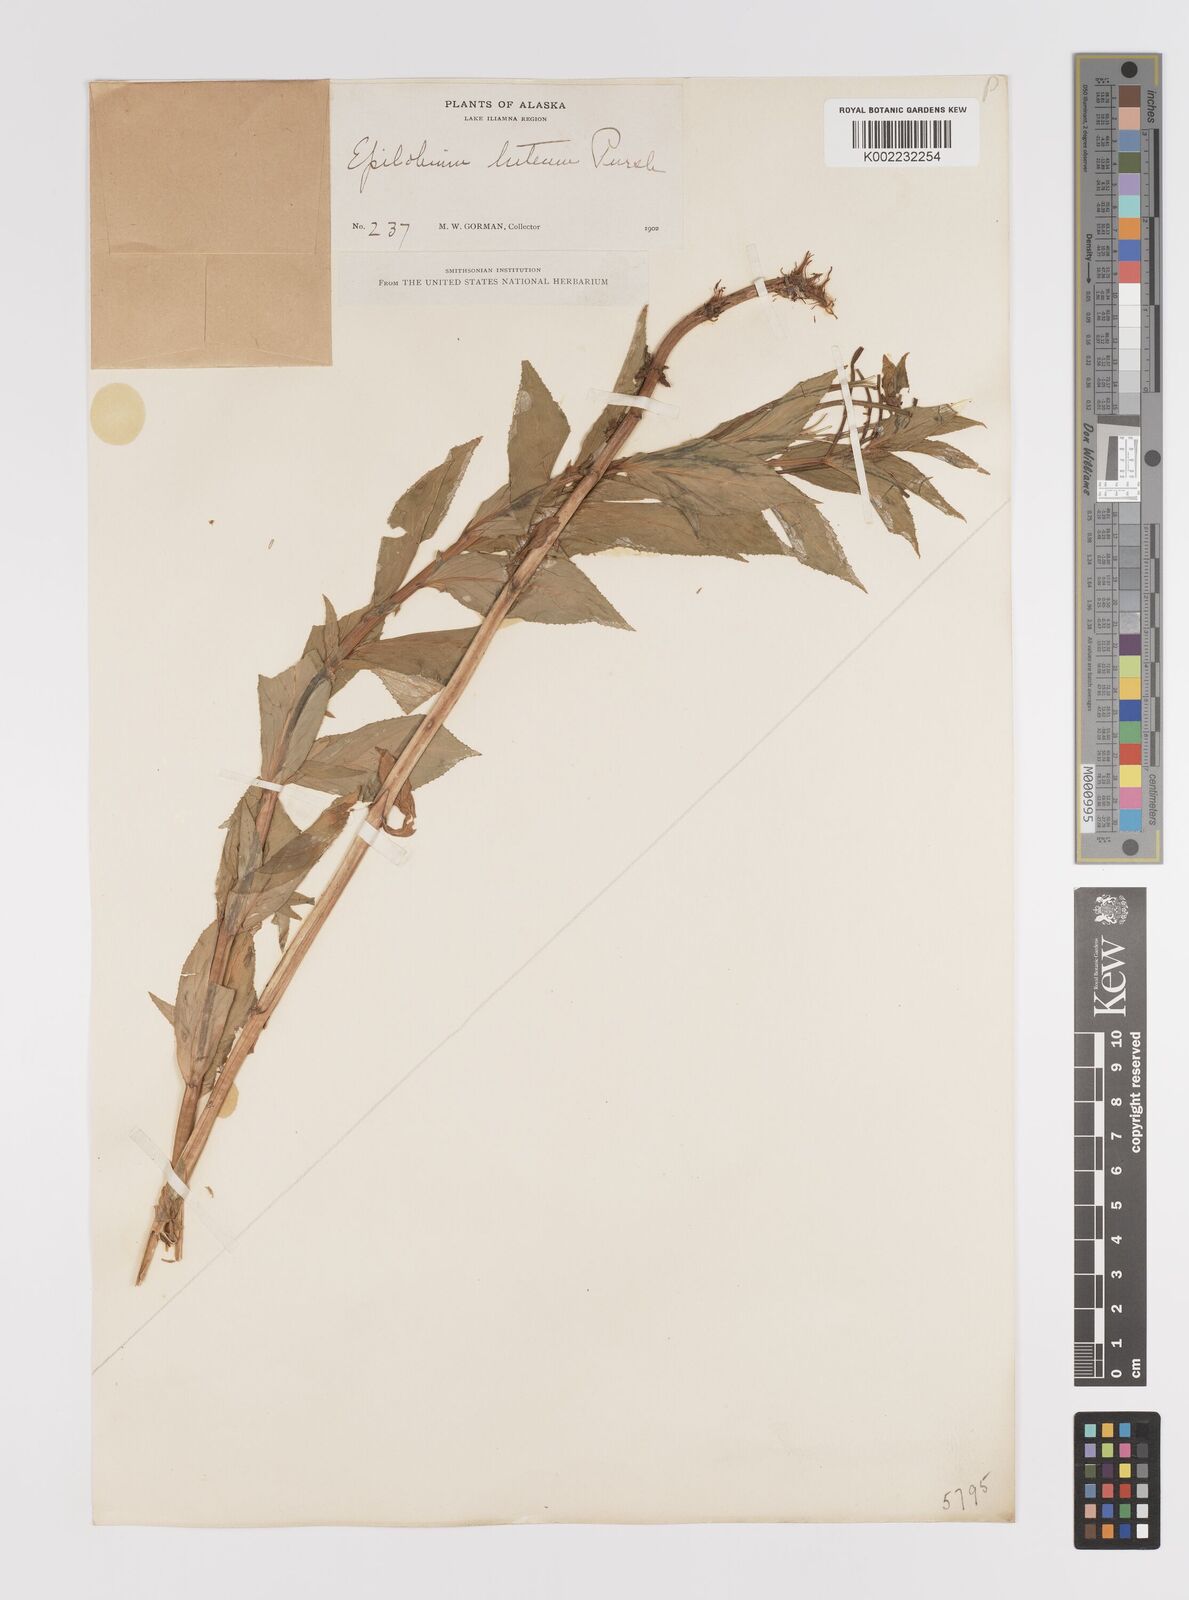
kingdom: Plantae
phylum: Tracheophyta
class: Magnoliopsida
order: Myrtales
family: Onagraceae
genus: Epilobium
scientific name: Epilobium luteum
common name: Yellow willowherb
